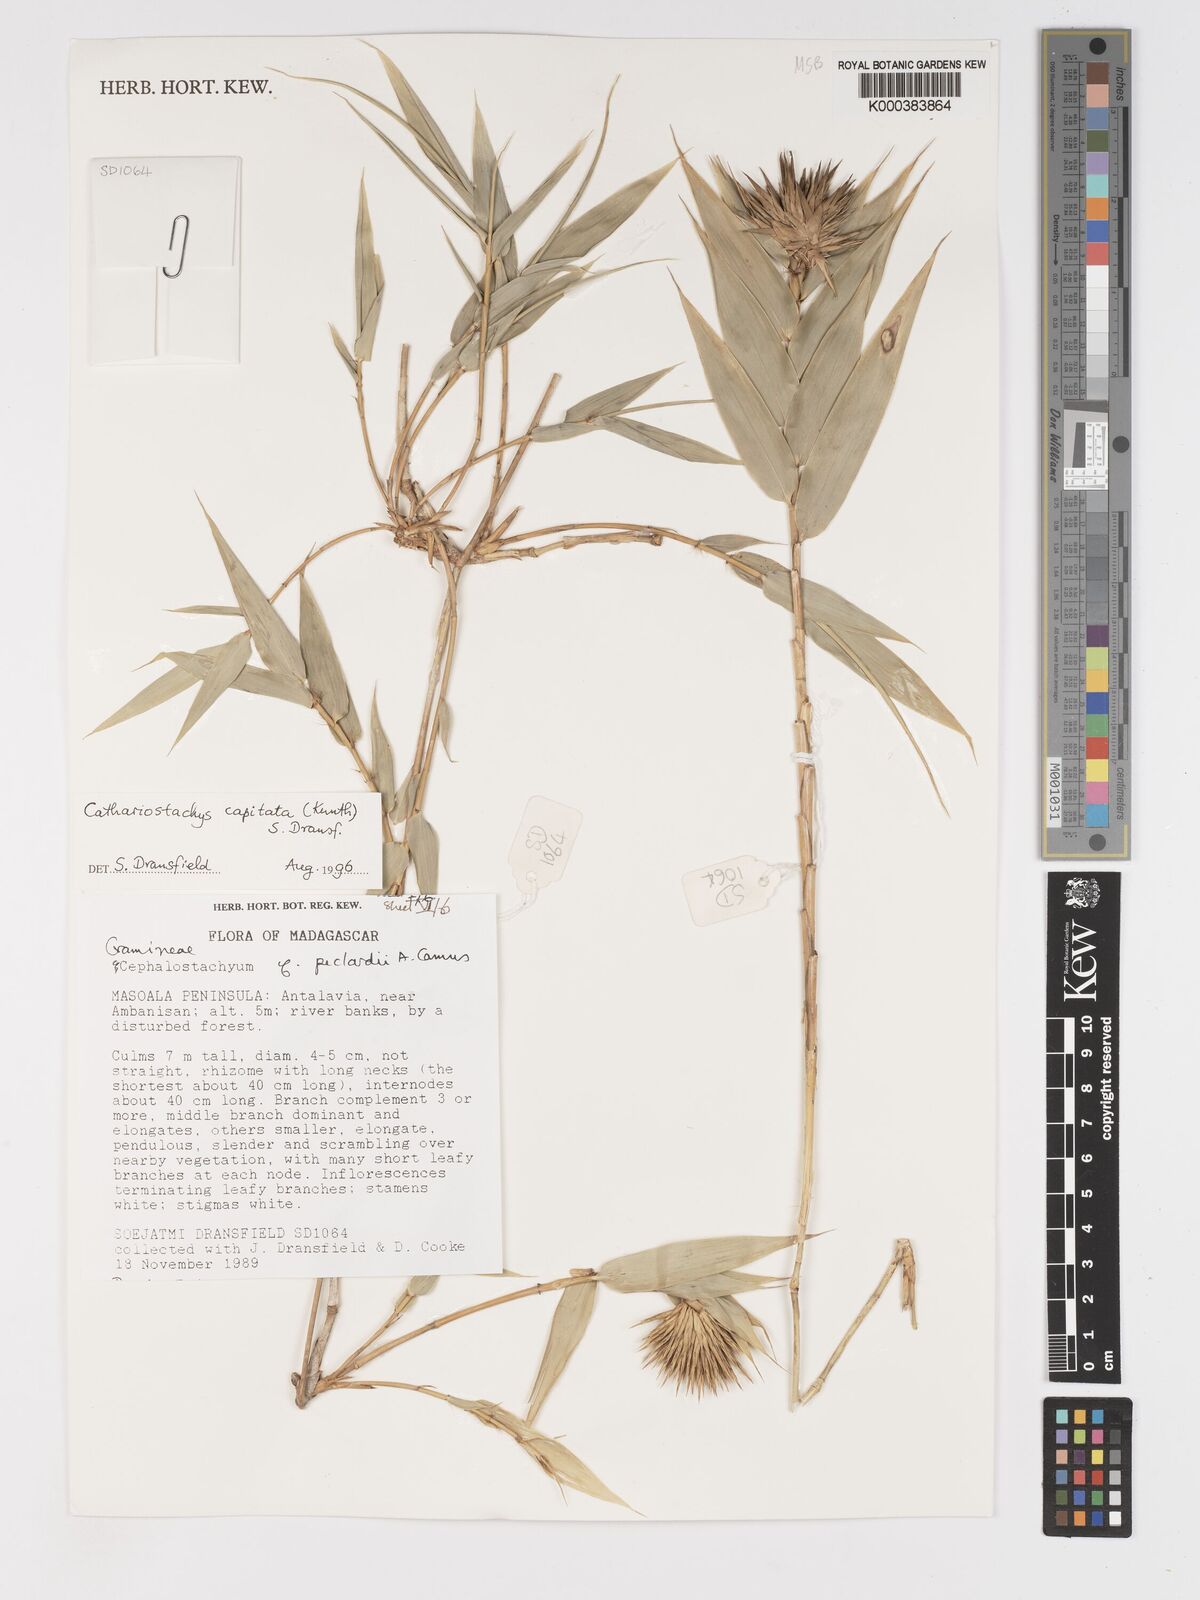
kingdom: Plantae
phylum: Tracheophyta
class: Liliopsida
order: Poales
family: Poaceae
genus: Cathariostachys
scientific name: Cathariostachys capitata
